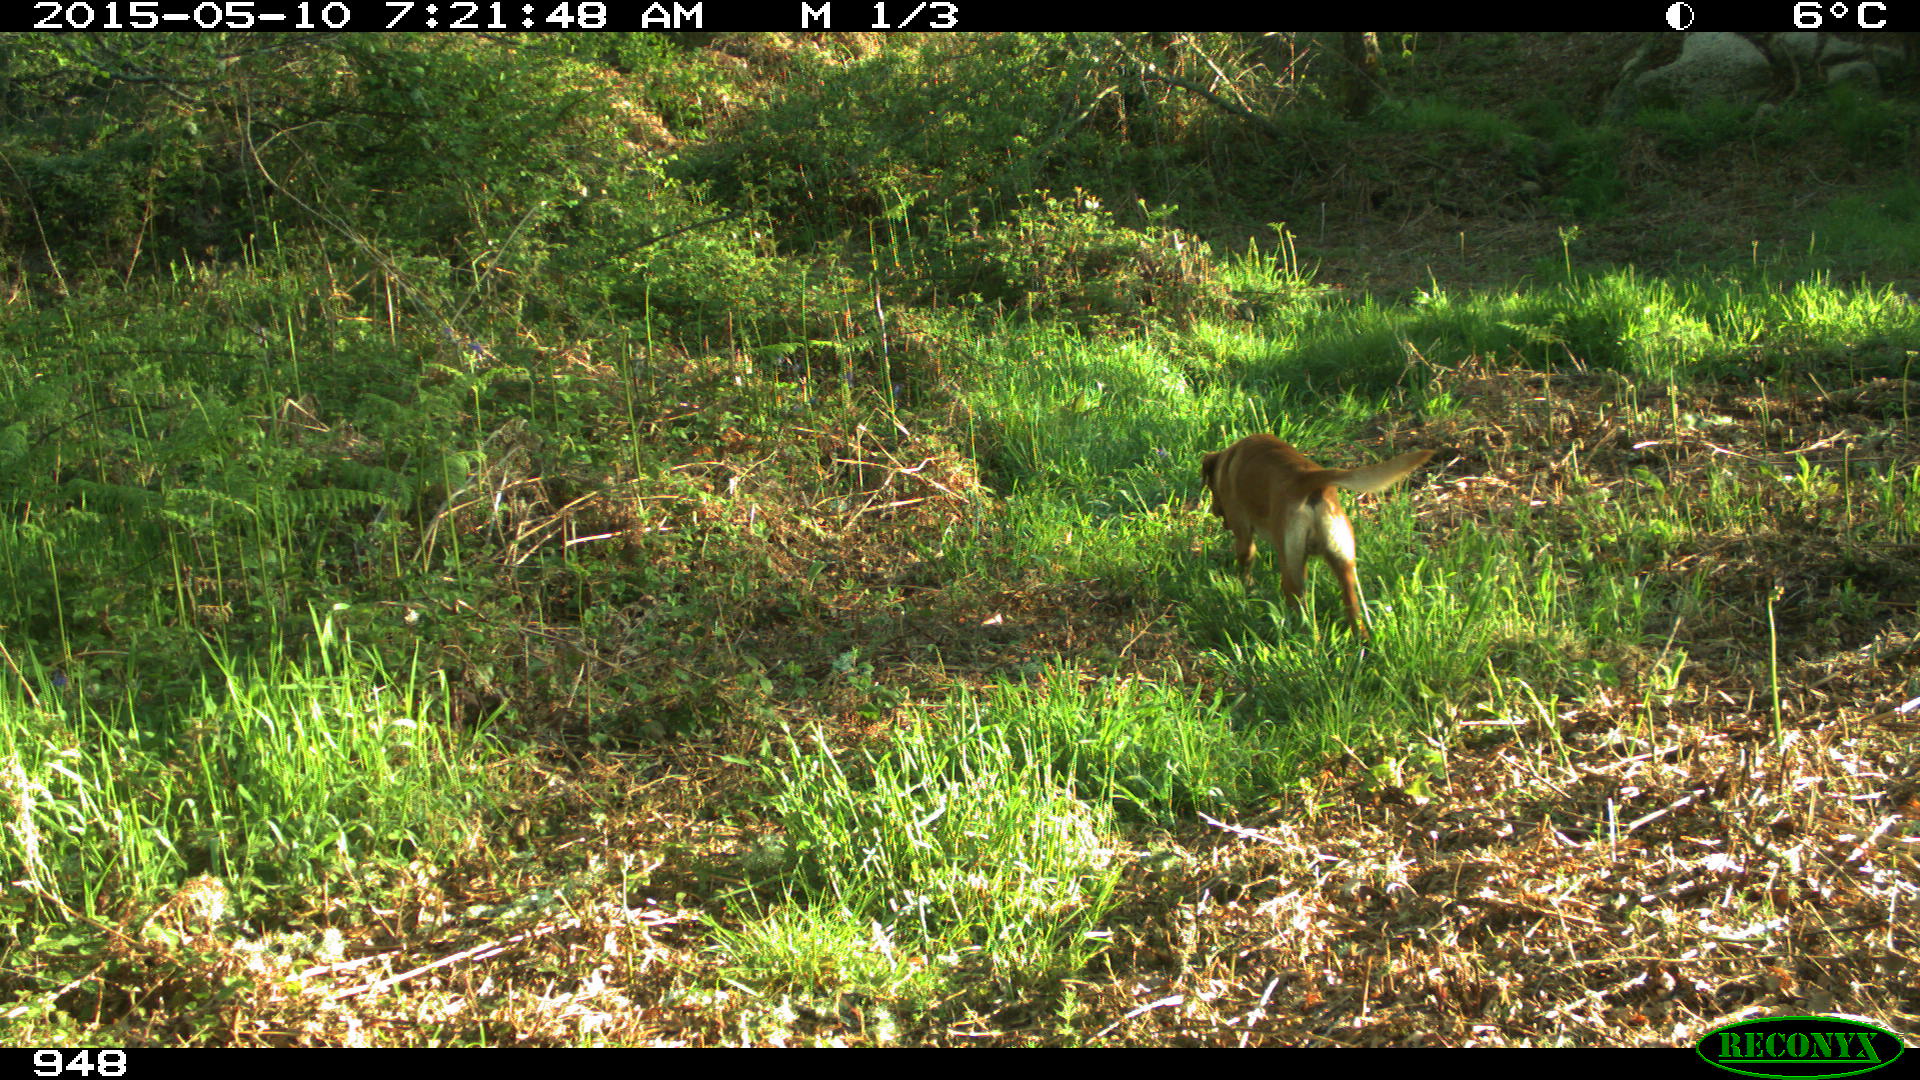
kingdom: Animalia
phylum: Chordata
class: Mammalia
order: Carnivora
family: Canidae
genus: Canis
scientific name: Canis lupus
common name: Gray wolf
